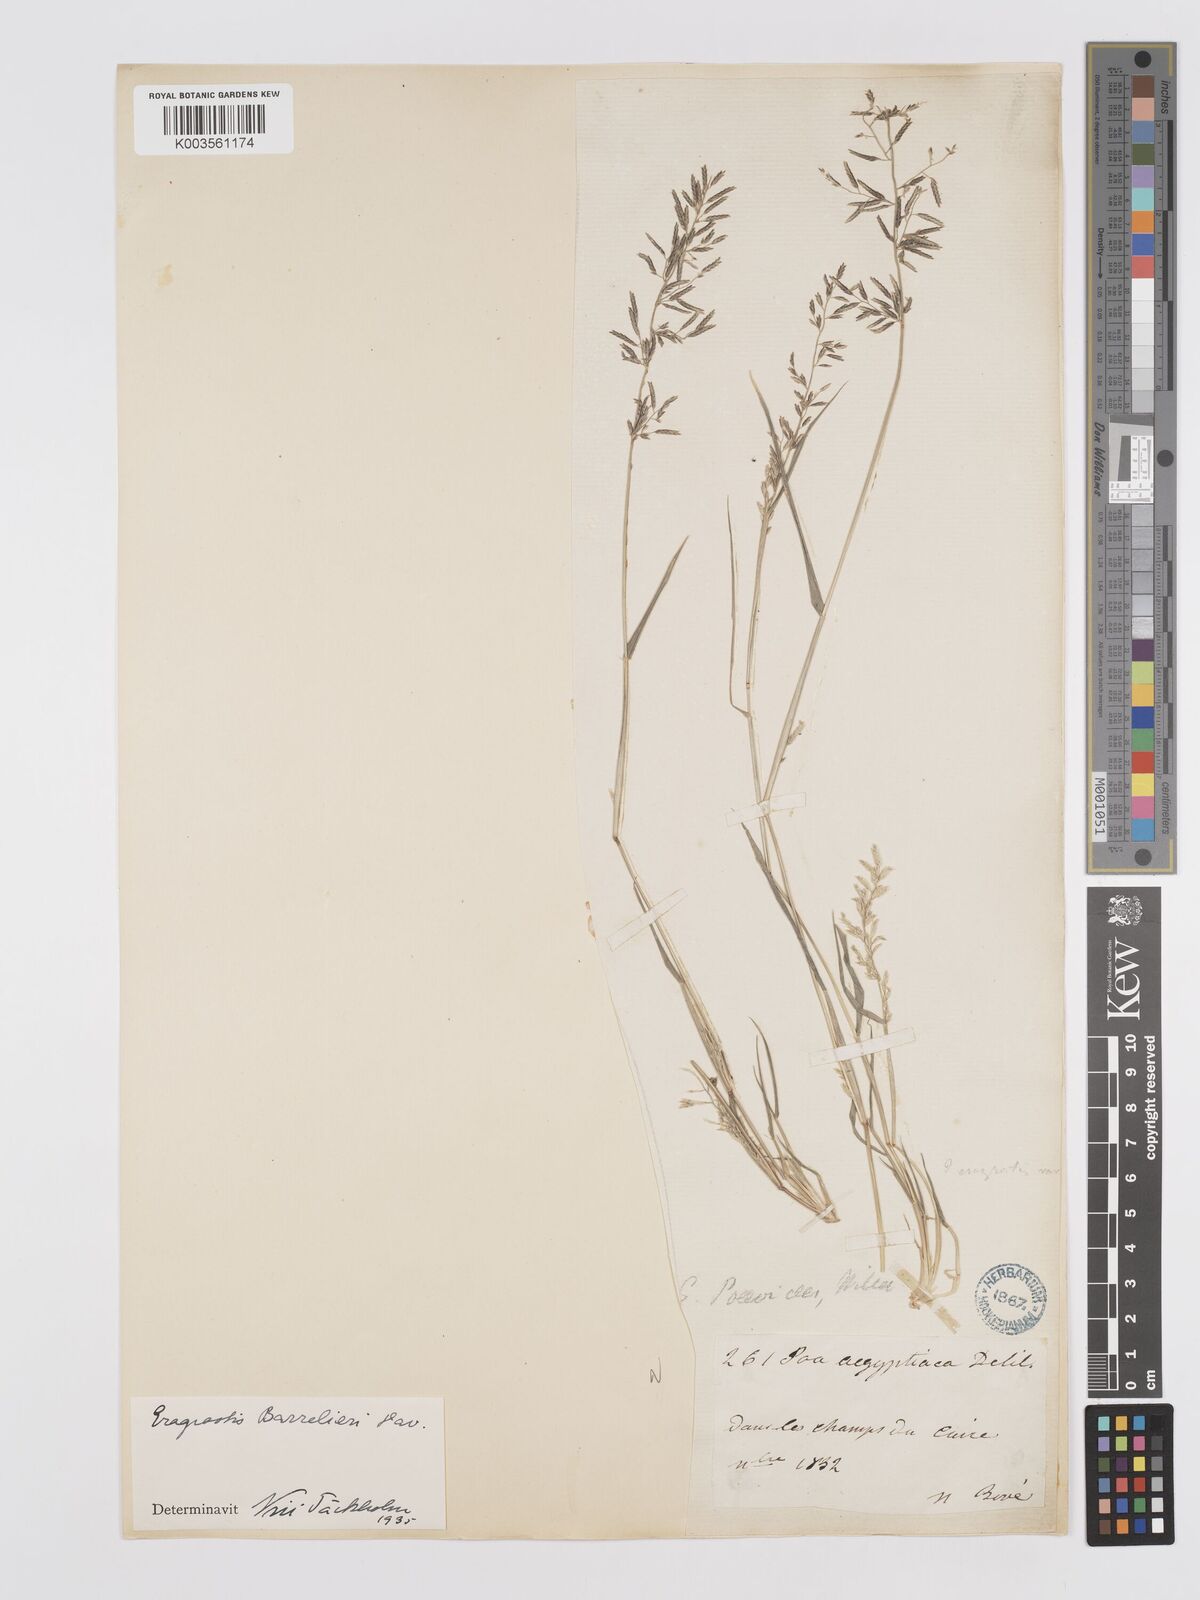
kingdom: Plantae
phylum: Tracheophyta
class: Liliopsida
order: Poales
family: Poaceae
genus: Eragrostis
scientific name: Eragrostis barrelieri
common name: Mediterranean lovegrass
